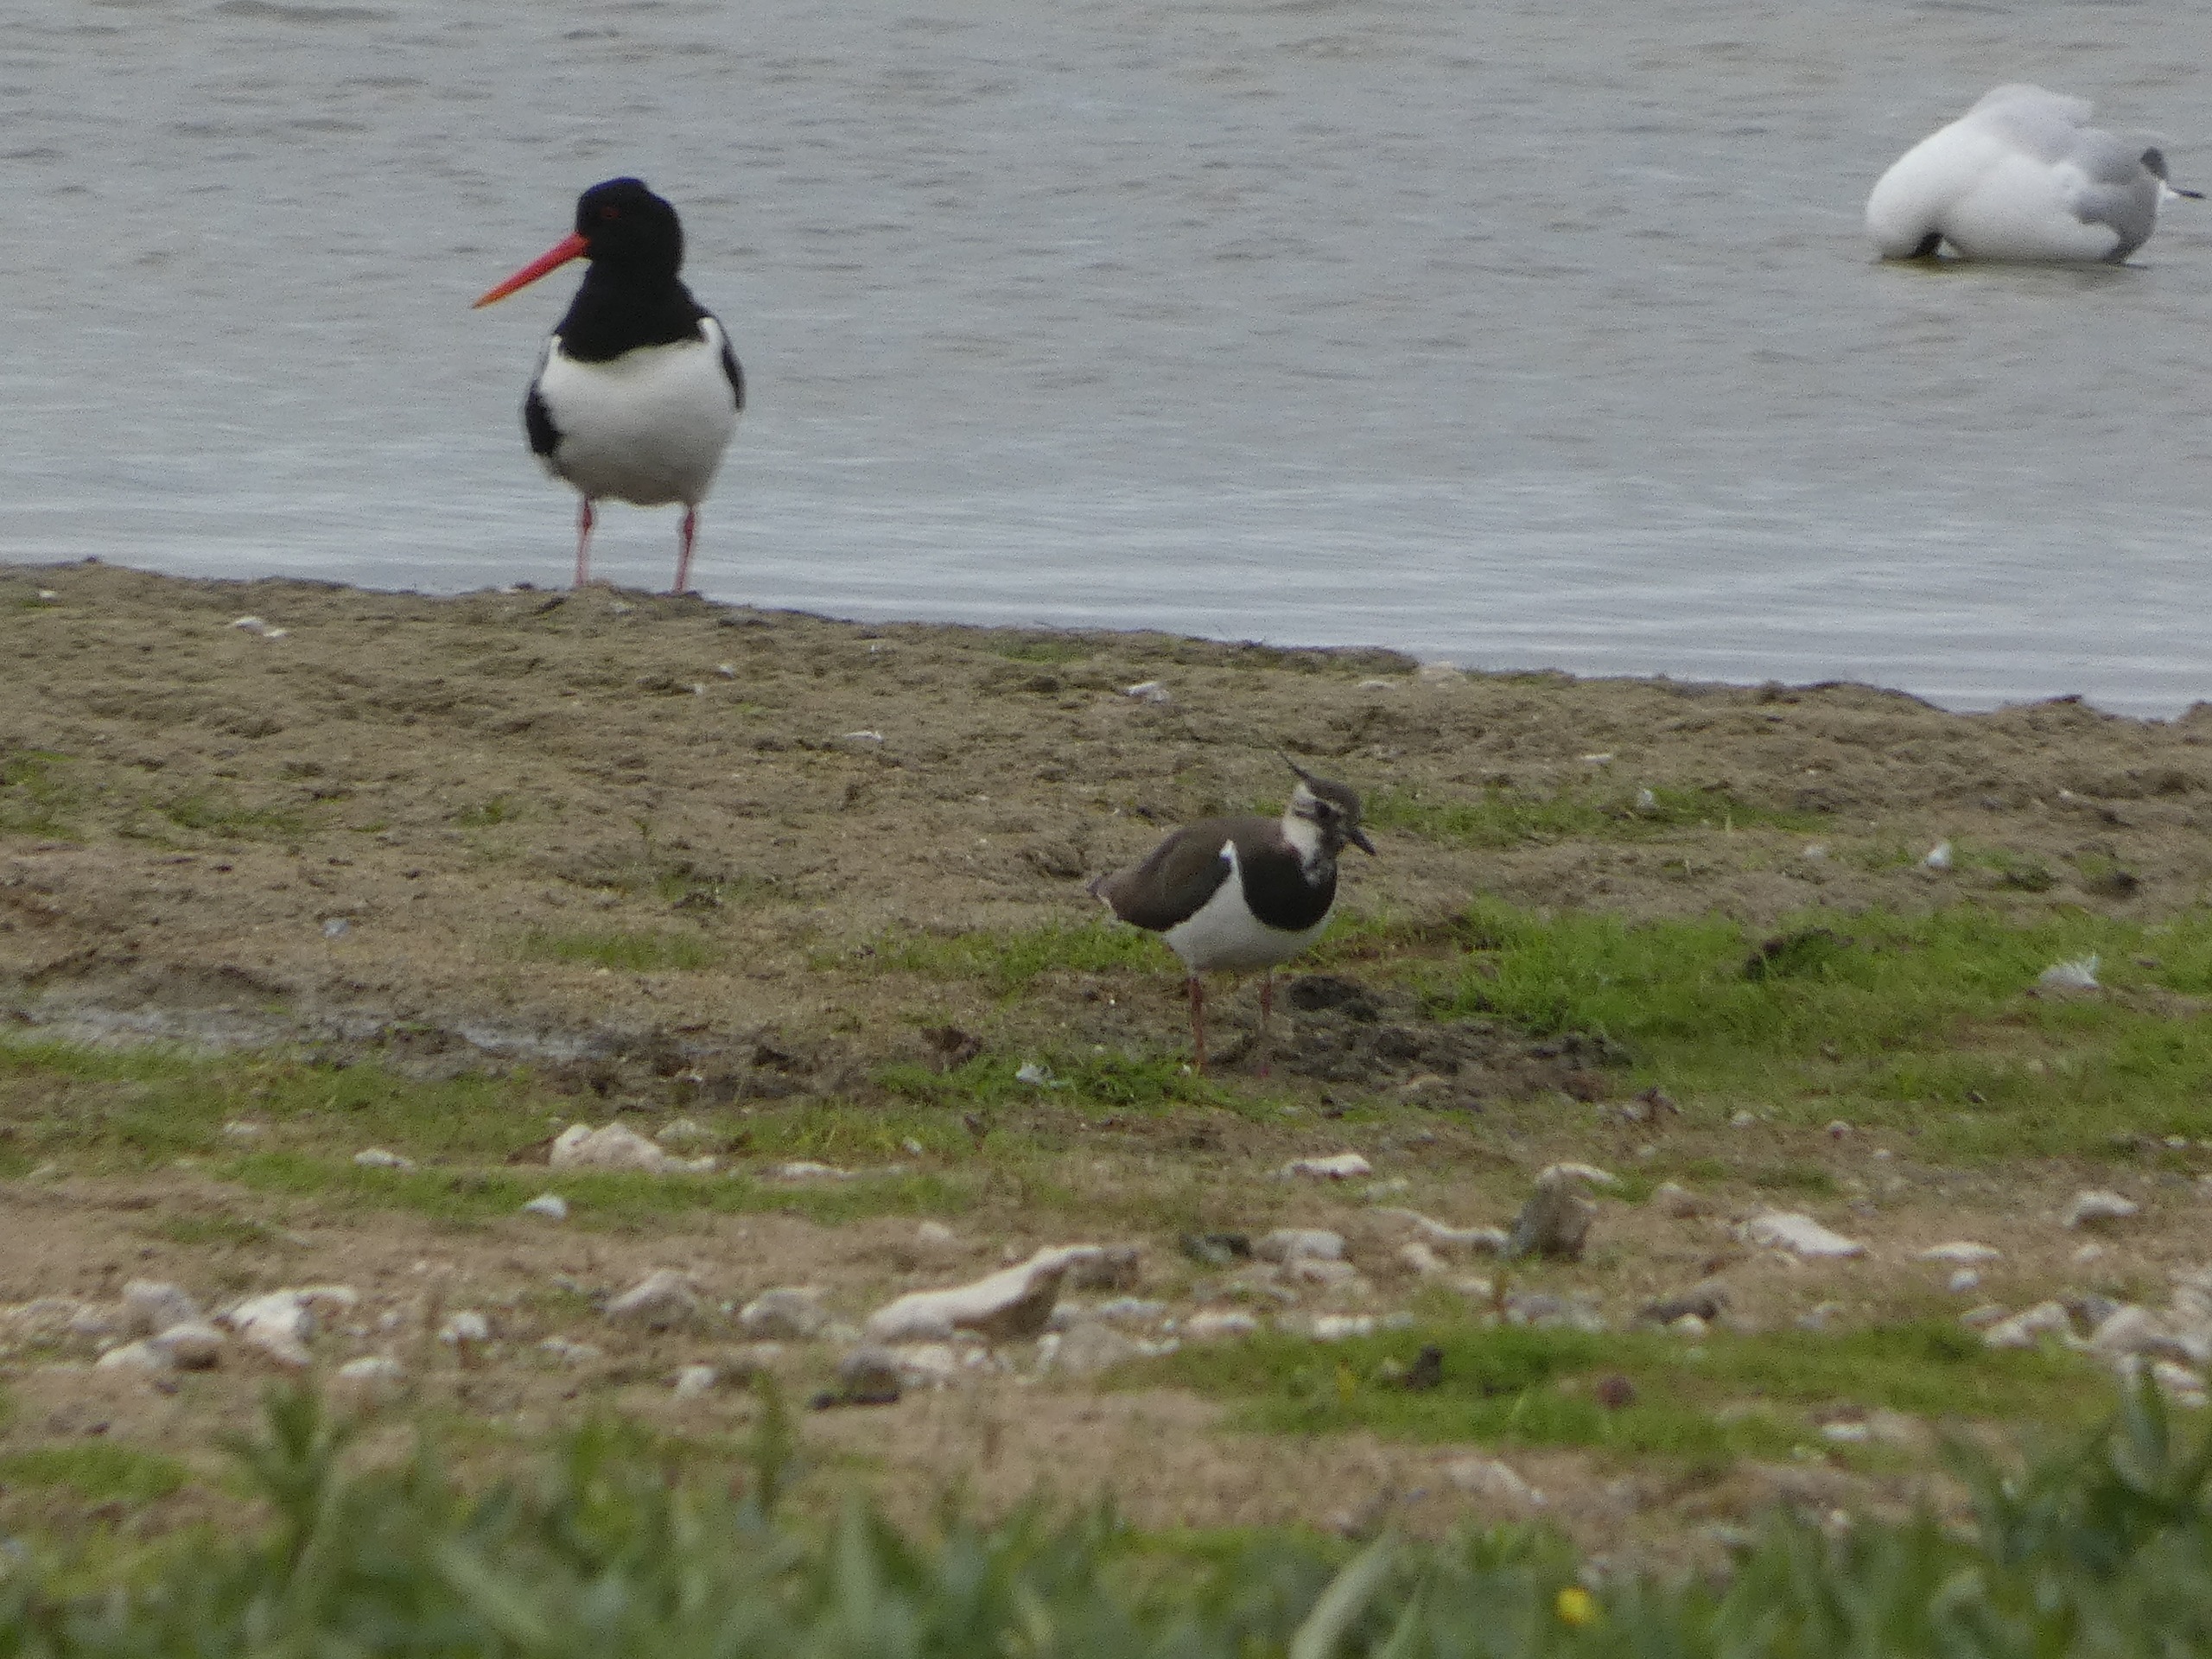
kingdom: Animalia
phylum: Chordata
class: Aves
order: Charadriiformes
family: Charadriidae
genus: Vanellus
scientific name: Vanellus vanellus
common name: Vibe
